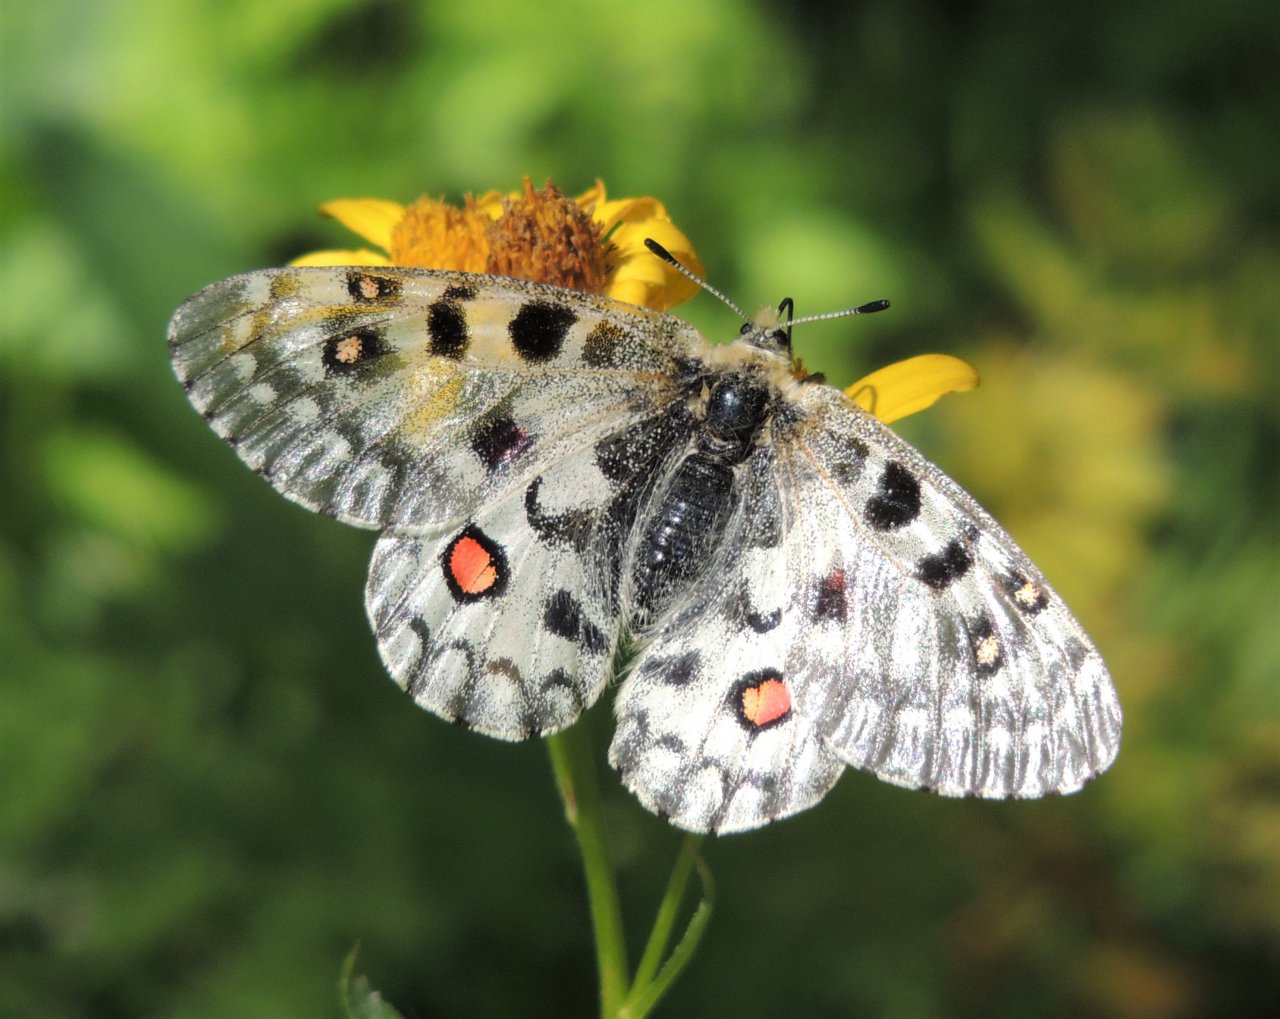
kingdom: Animalia
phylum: Arthropoda
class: Insecta
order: Lepidoptera
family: Papilionidae
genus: Parnassius
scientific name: Parnassius smintheus
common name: Rocky Mountain Parnassian
